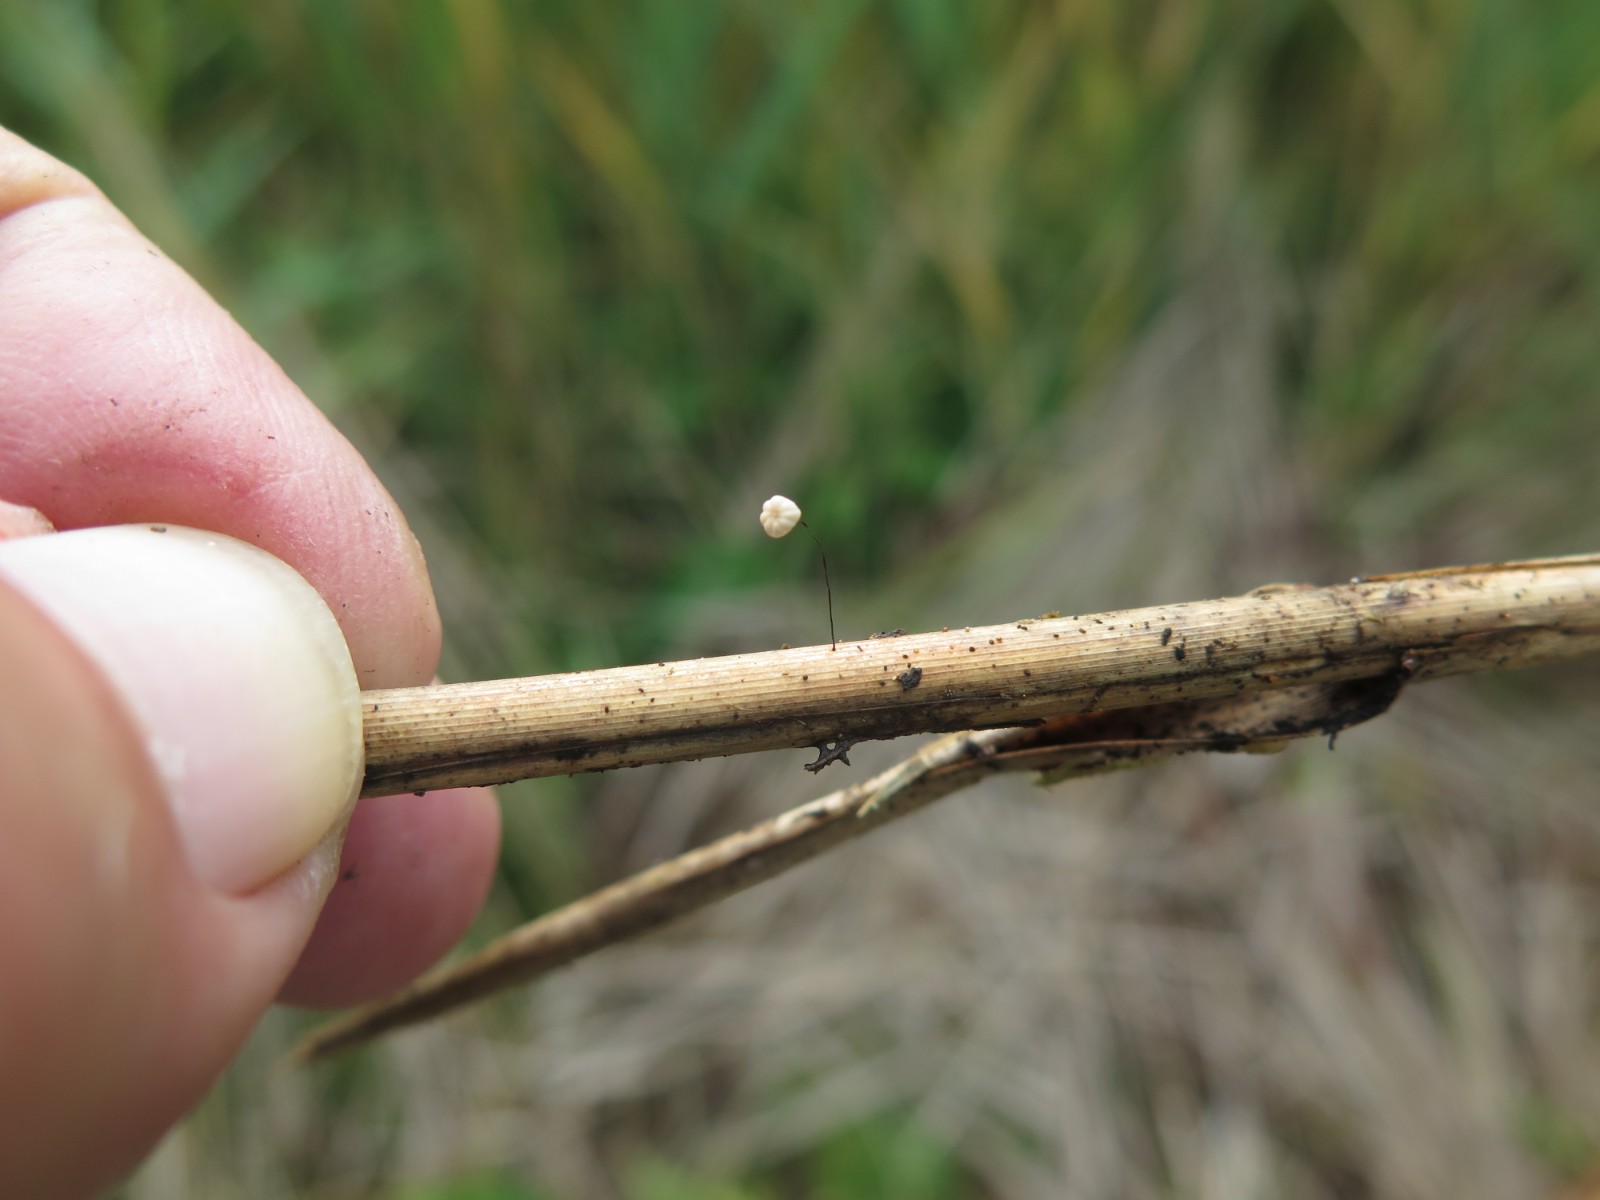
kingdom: Fungi
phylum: Basidiomycota
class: Agaricomycetes
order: Agaricales
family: Marasmiaceae
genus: Marasmius
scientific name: Marasmius limosus
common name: kær-bruskhat
